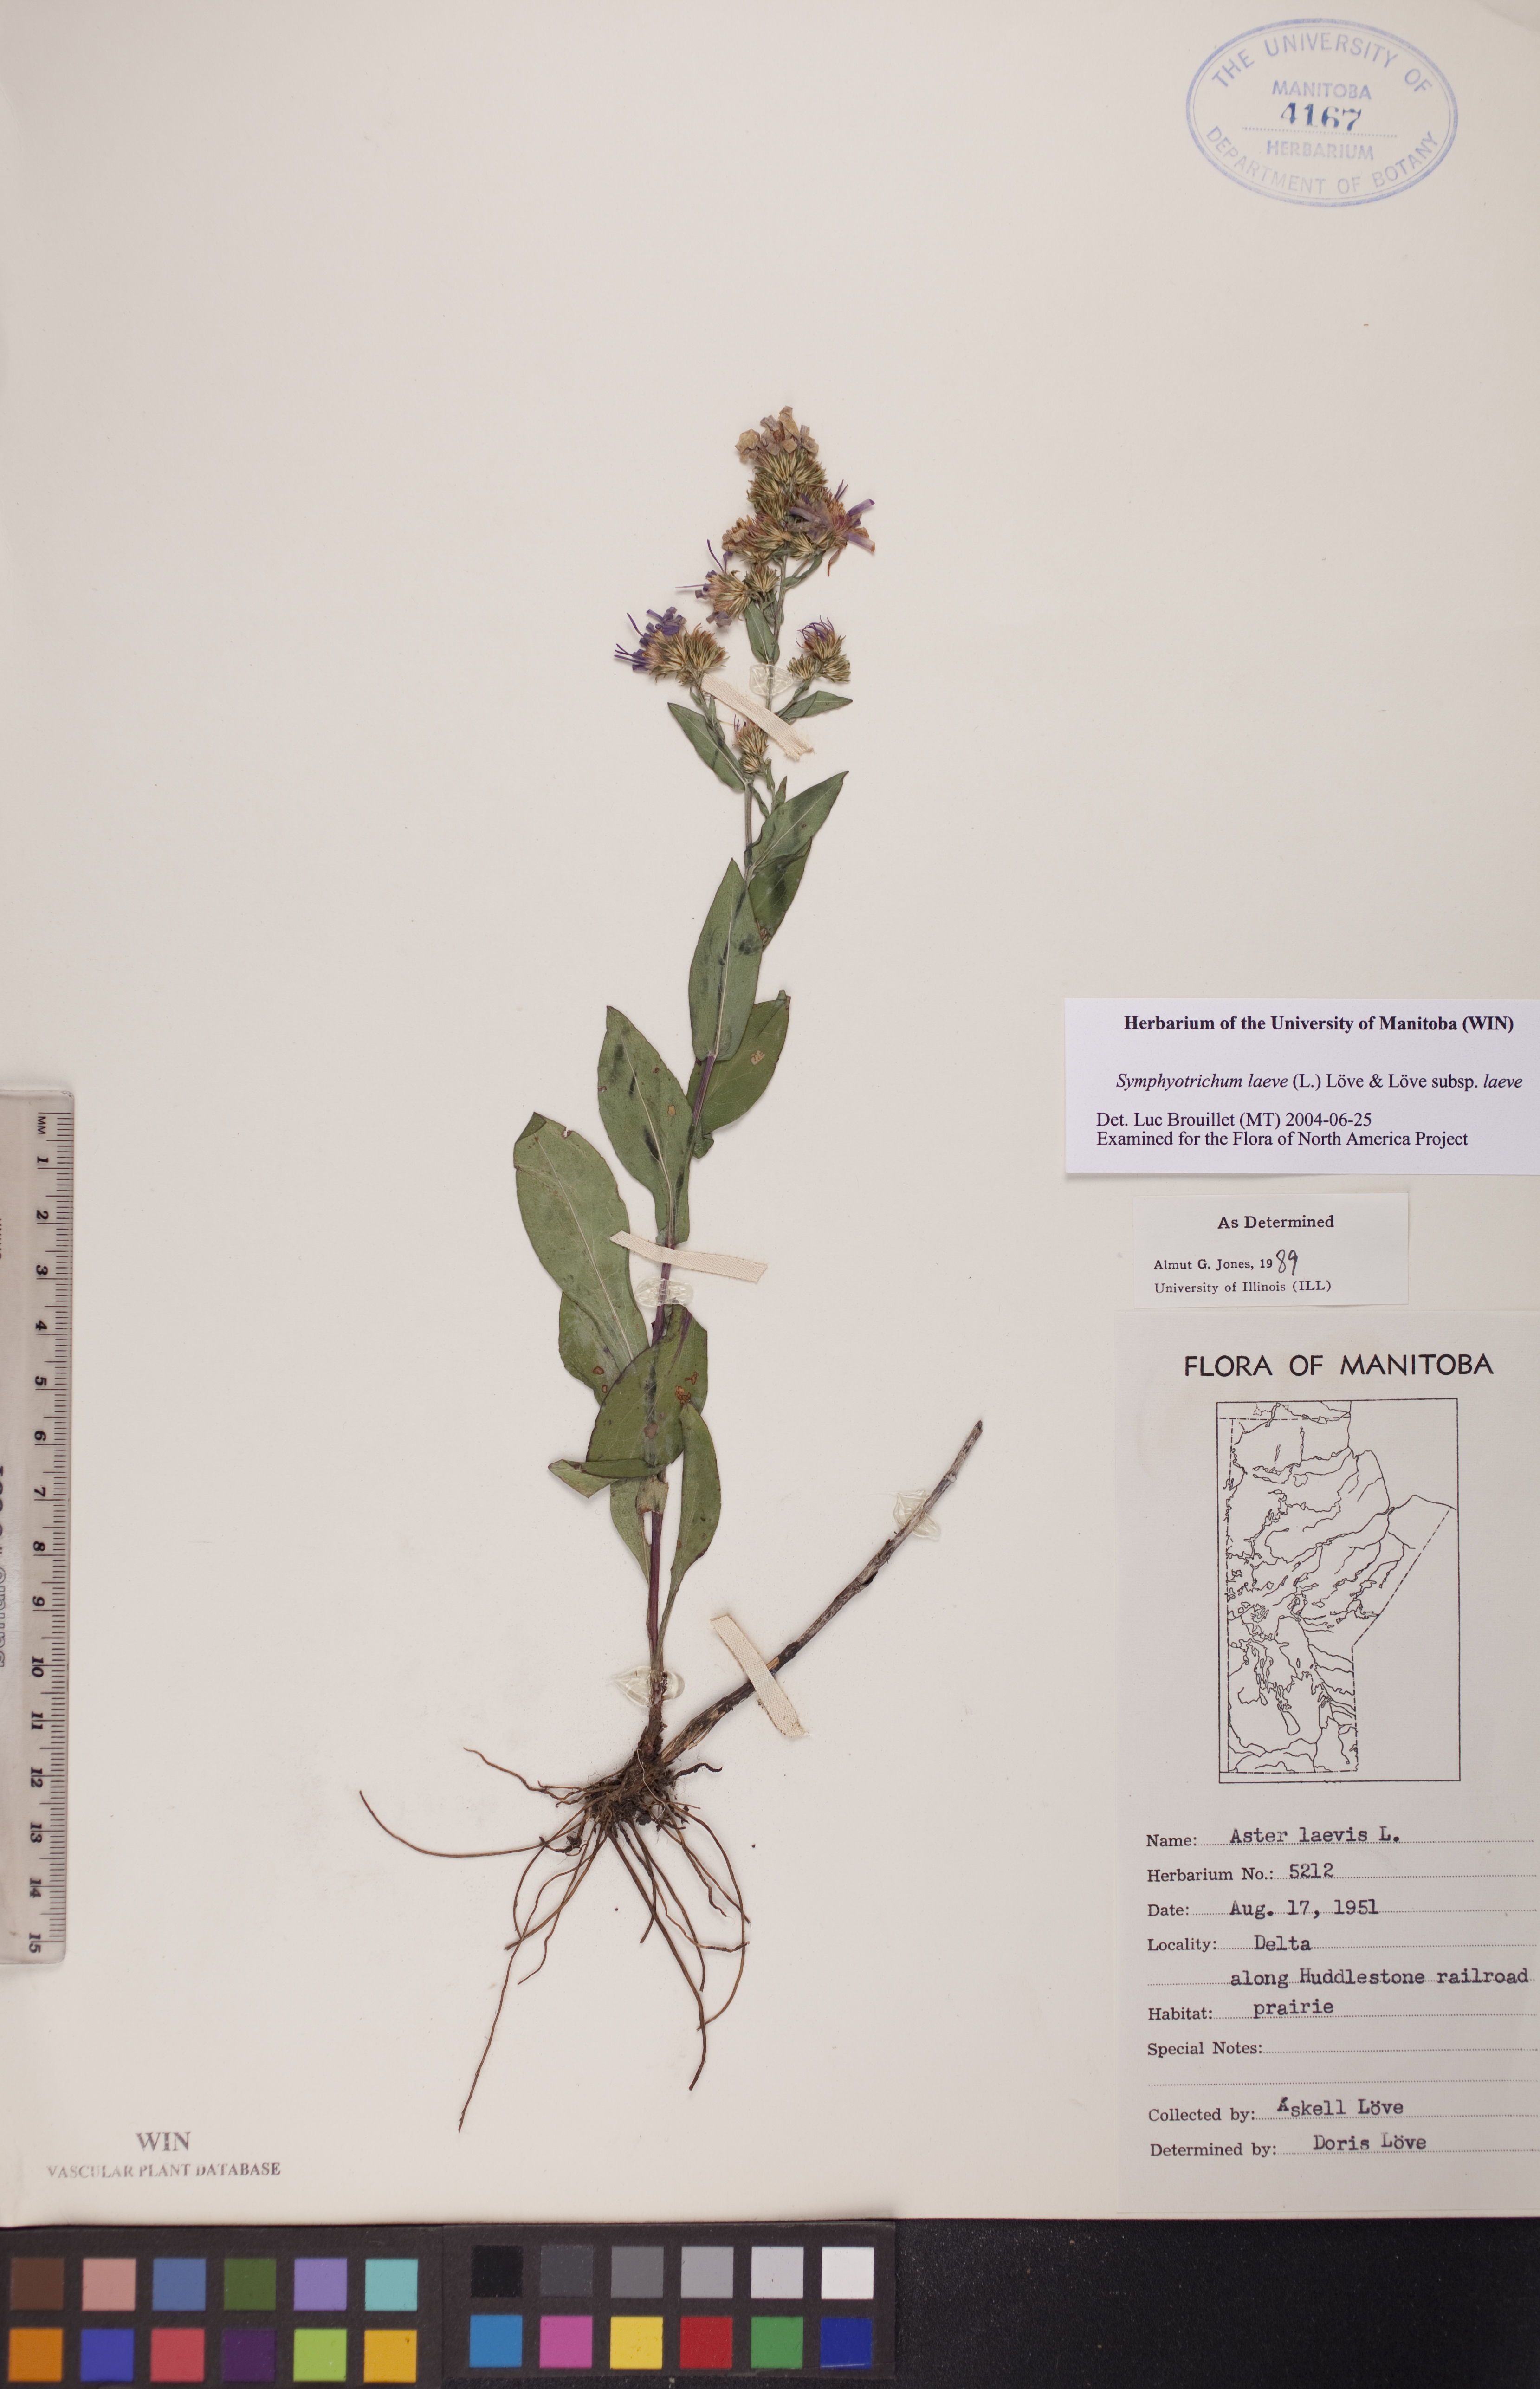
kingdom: Plantae
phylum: Tracheophyta
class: Magnoliopsida
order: Asterales
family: Asteraceae
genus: Symphyotrichum
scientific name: Symphyotrichum laeve
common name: Glaucous aster
